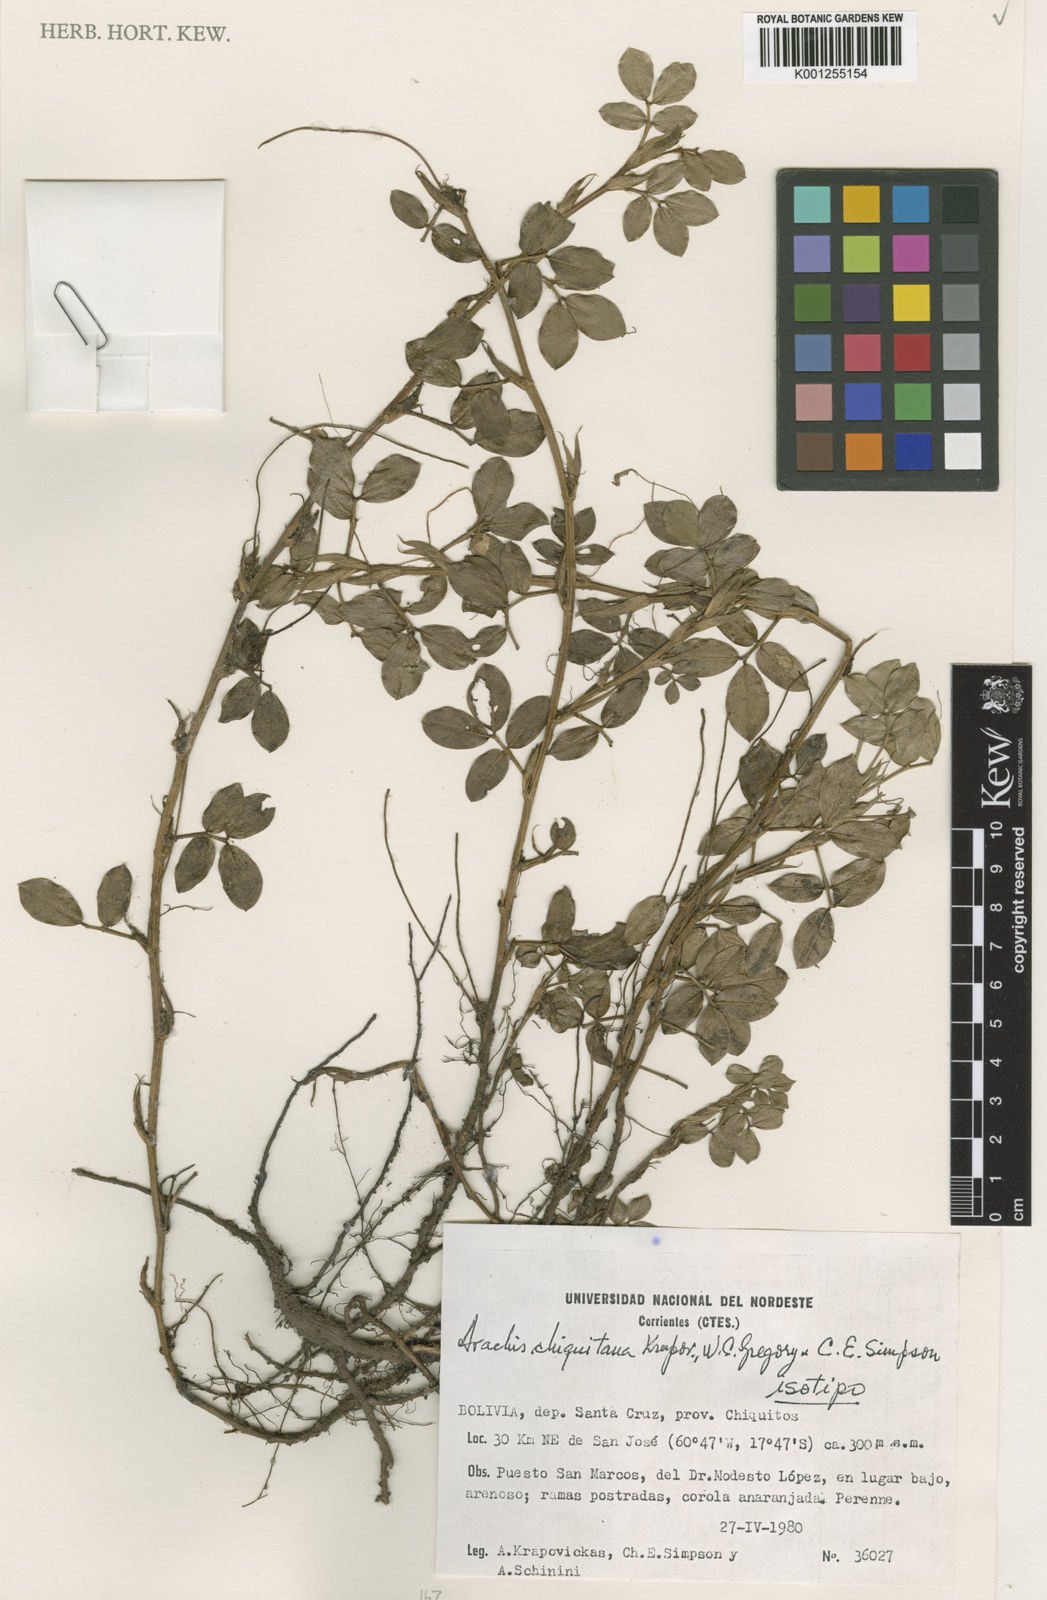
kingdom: Plantae
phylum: Tracheophyta
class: Magnoliopsida
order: Fabales
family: Fabaceae
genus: Arachis
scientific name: Arachis
